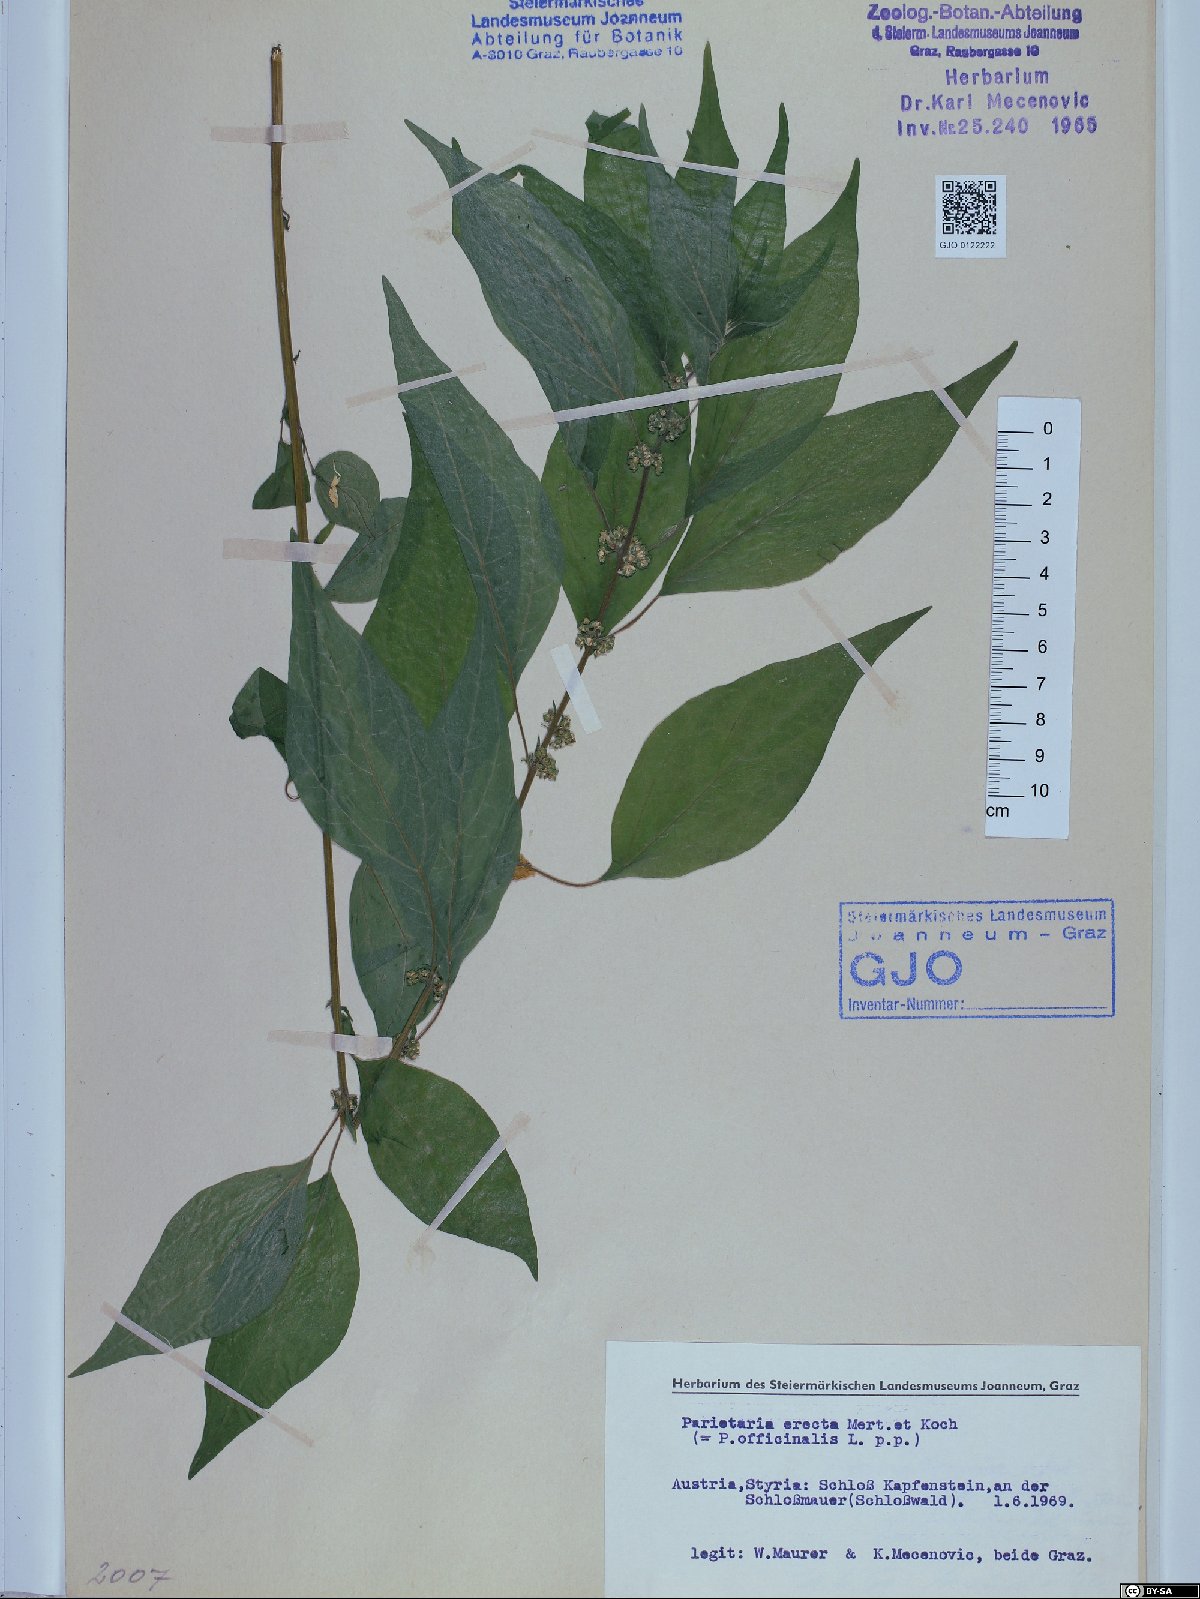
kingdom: Plantae
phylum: Tracheophyta
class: Magnoliopsida
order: Rosales
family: Urticaceae
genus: Parietaria
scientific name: Parietaria officinalis
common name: Eastern pellitory-of-the-wall
